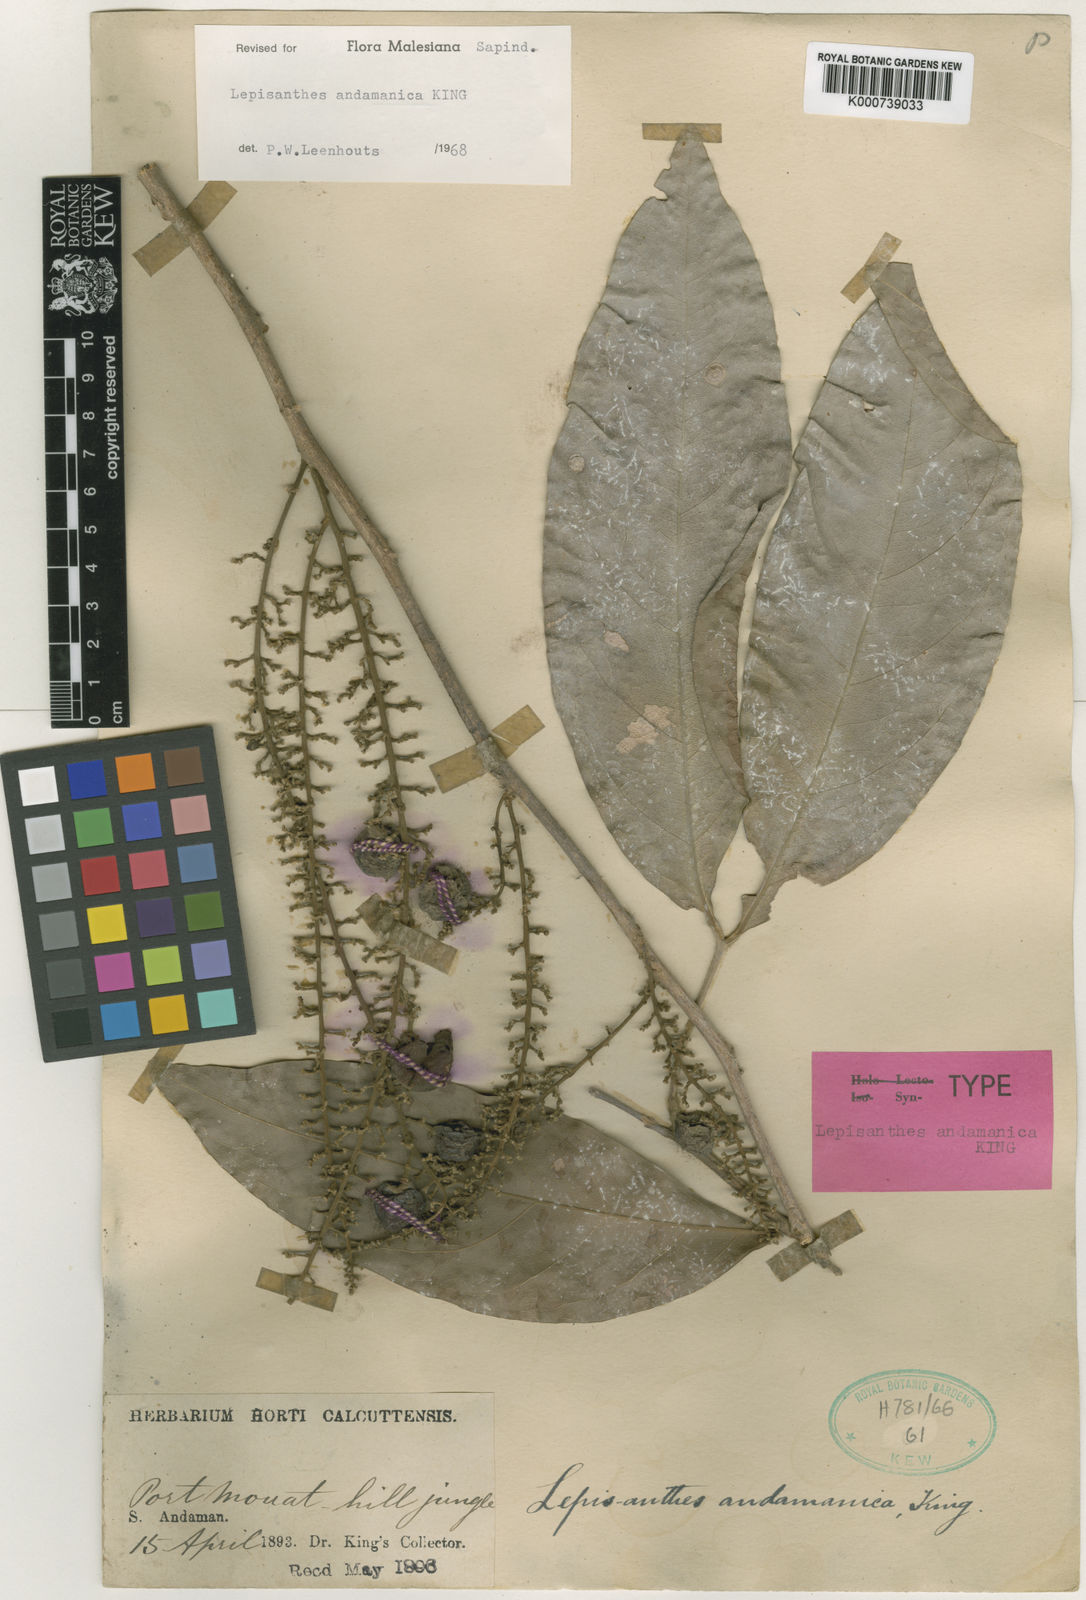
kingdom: Plantae
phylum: Tracheophyta
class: Magnoliopsida
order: Sapindales
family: Sapindaceae
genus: Lepisanthes
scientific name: Lepisanthes andamanica
